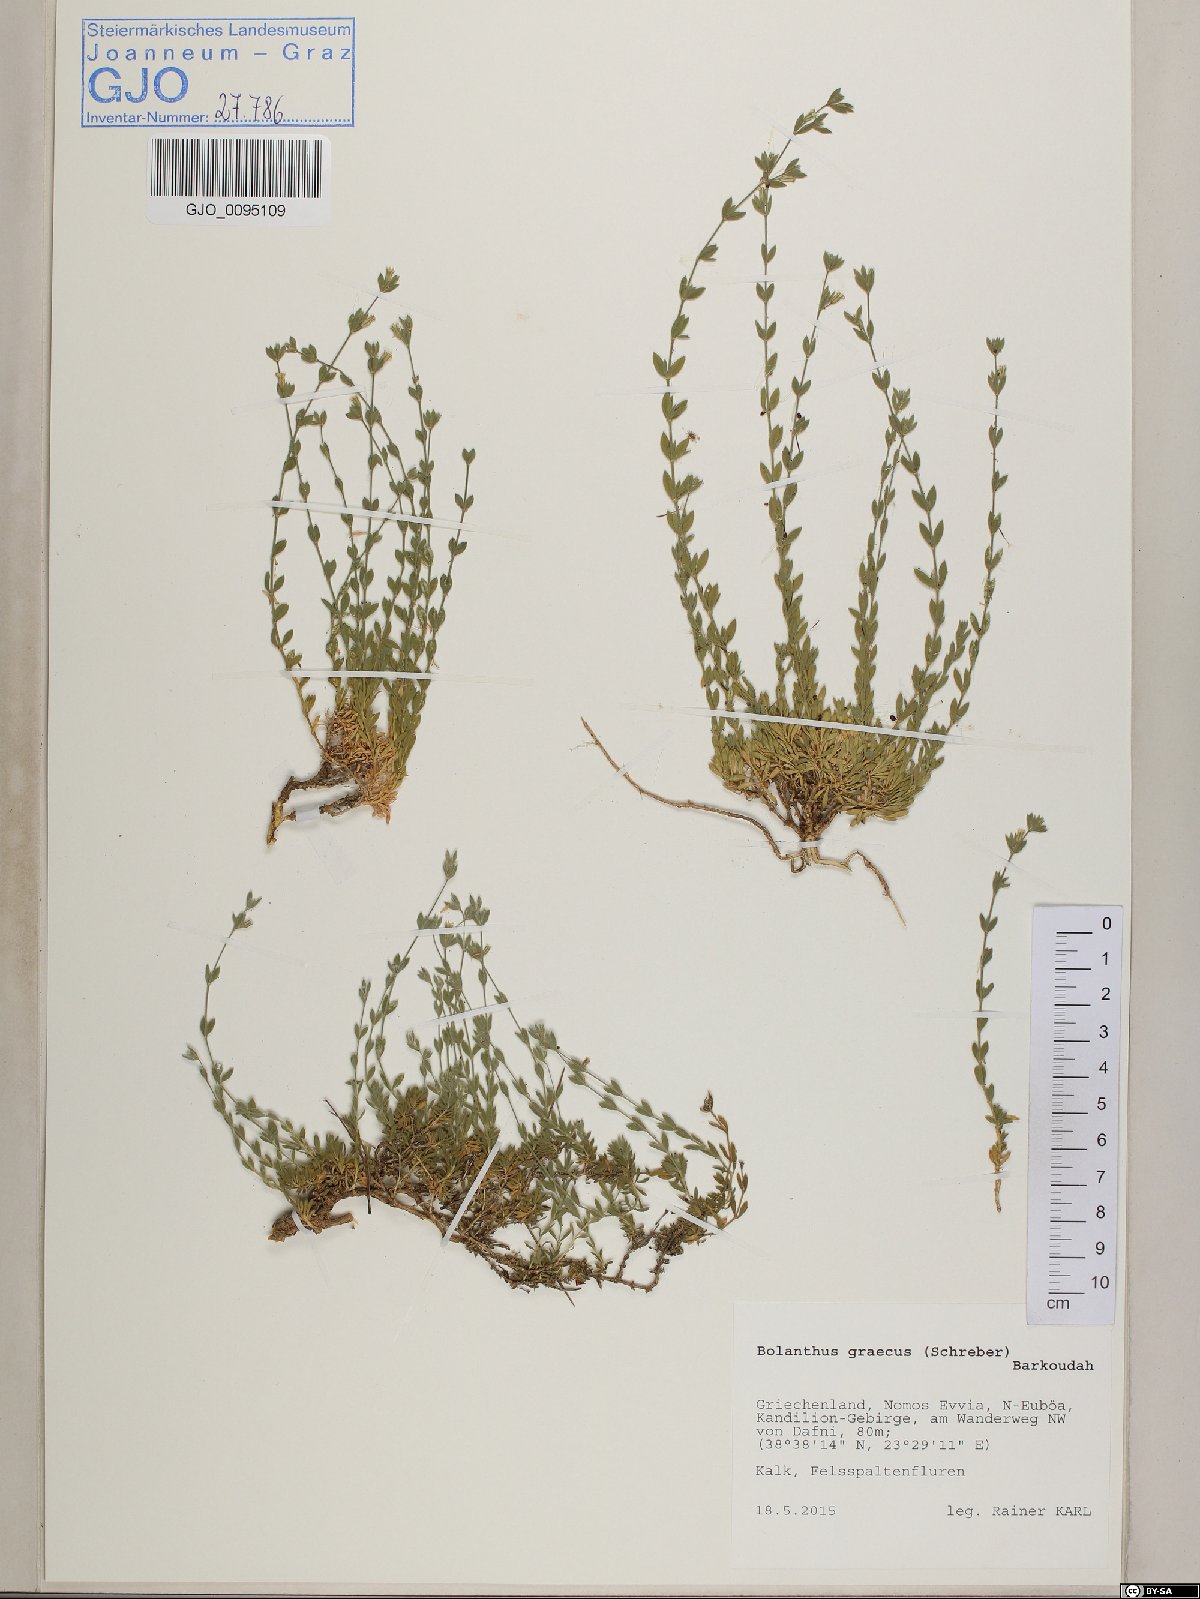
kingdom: Plantae
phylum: Tracheophyta
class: Magnoliopsida
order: Caryophyllales
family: Caryophyllaceae
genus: Graecobolanthus
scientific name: Graecobolanthus graecus
